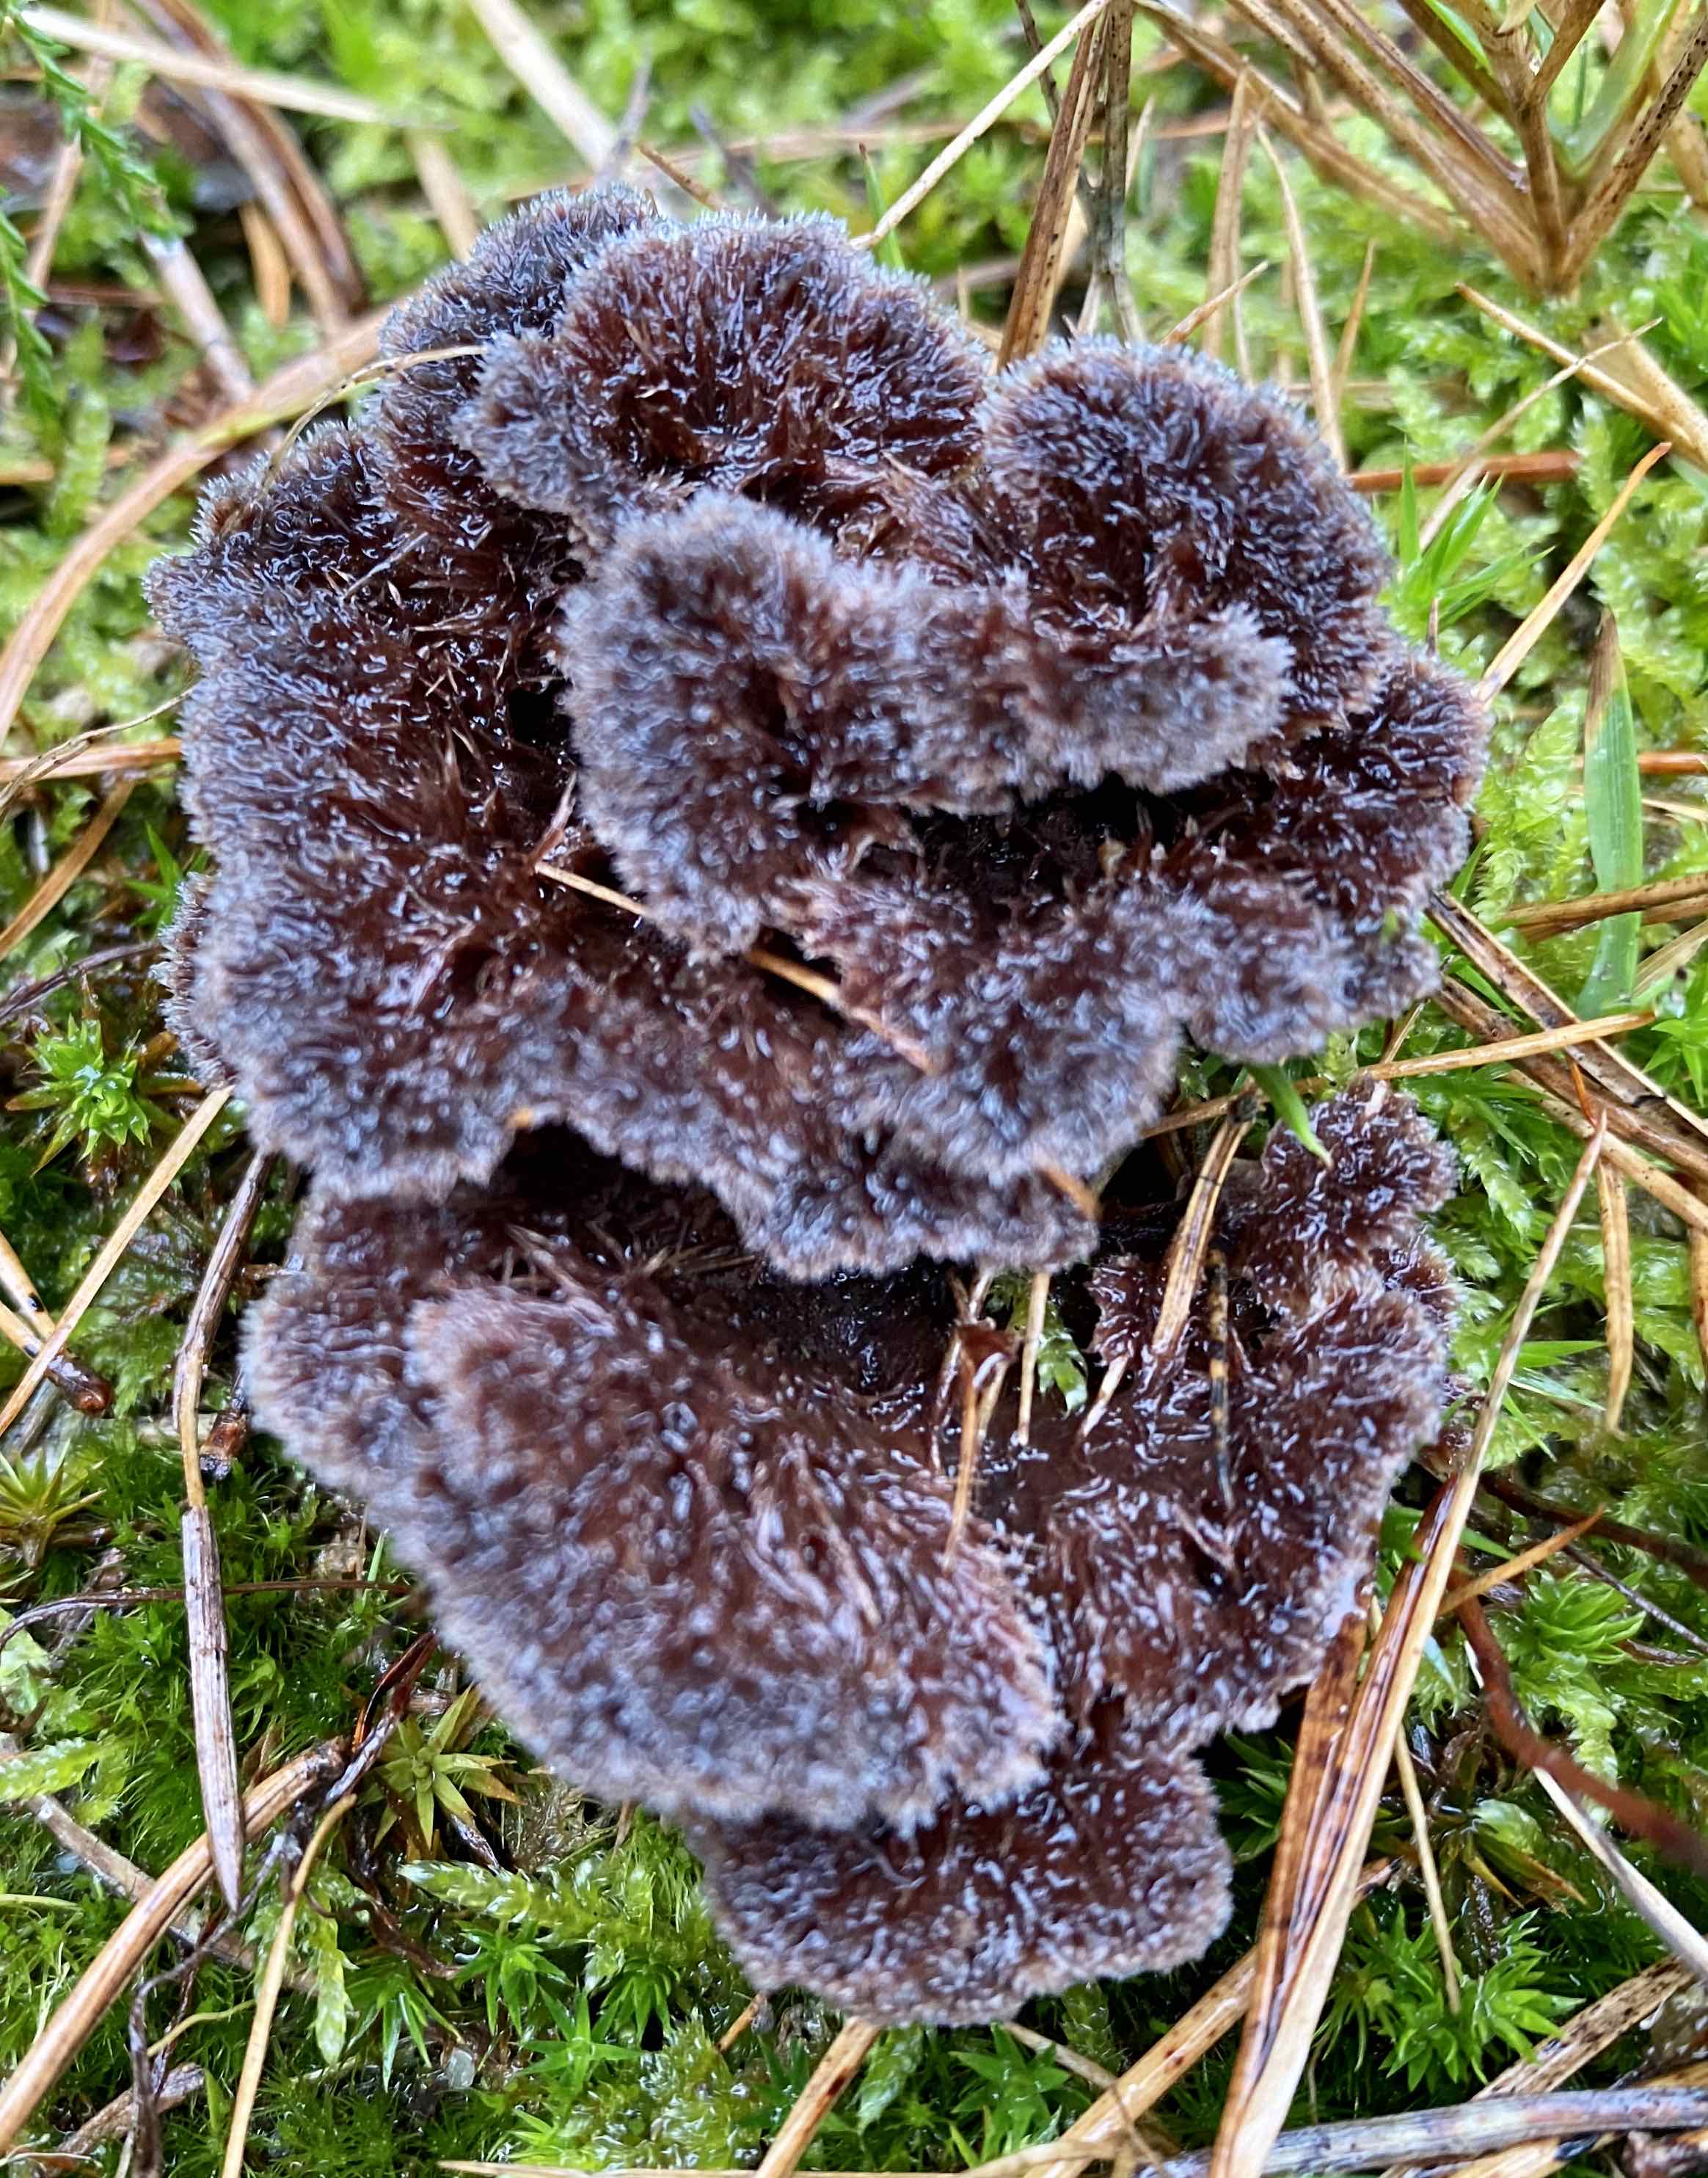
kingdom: Fungi
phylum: Basidiomycota
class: Agaricomycetes
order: Thelephorales
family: Thelephoraceae
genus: Thelephora
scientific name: Thelephora terrestris
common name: fliget frynsesvamp
